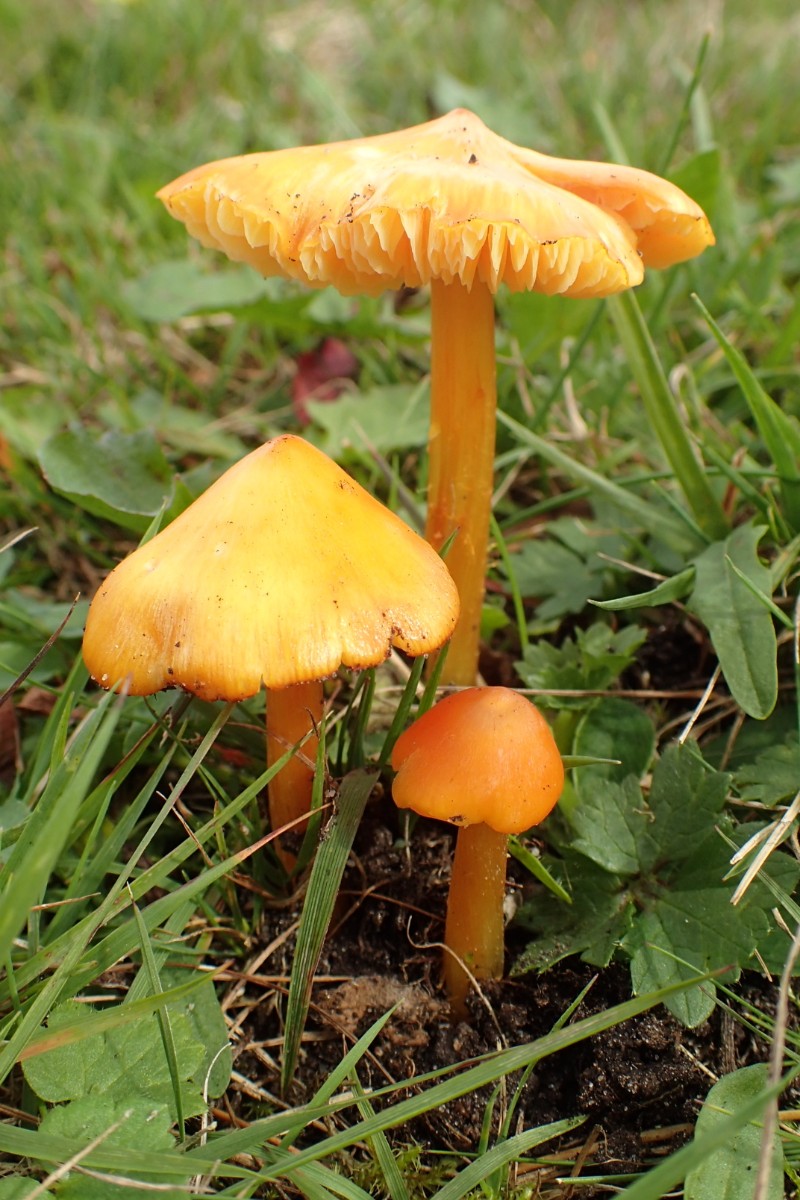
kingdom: Fungi
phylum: Basidiomycota
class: Agaricomycetes
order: Agaricales
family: Hygrophoraceae
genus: Hygrocybe
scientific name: Hygrocybe
